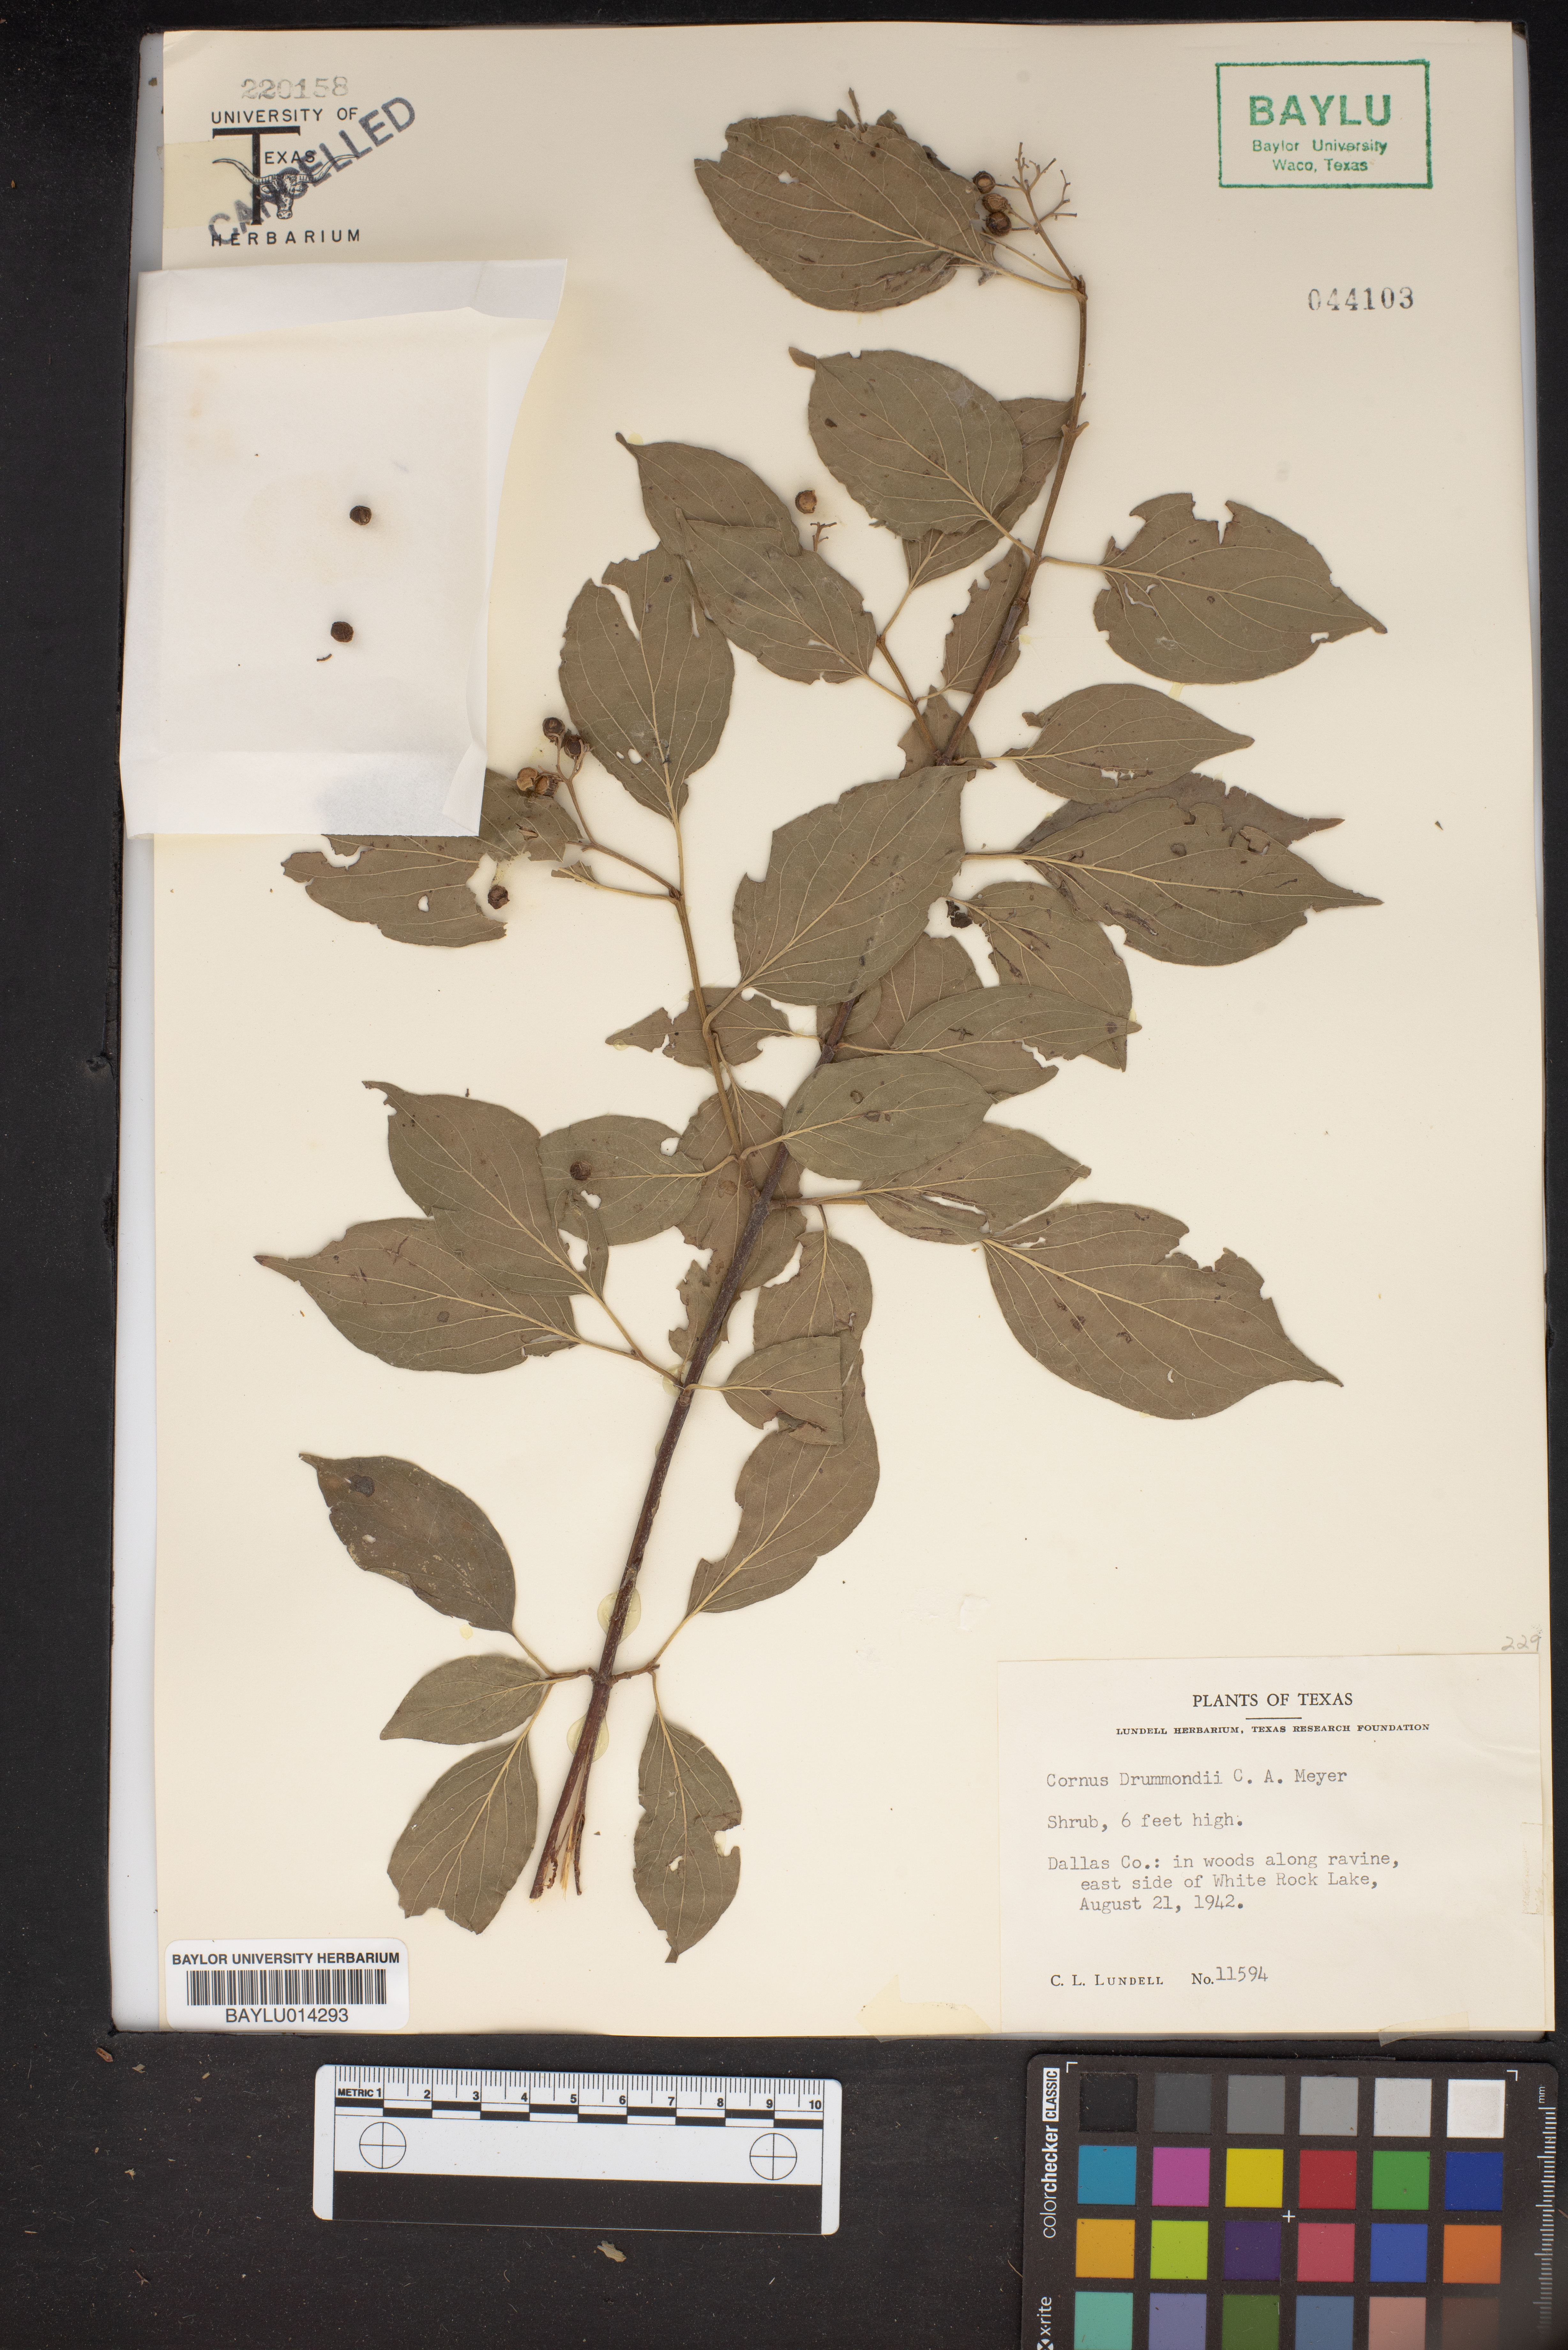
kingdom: Plantae
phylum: Tracheophyta
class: Magnoliopsida
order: Cornales
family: Cornaceae
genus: Cornus
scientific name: Cornus drummondii
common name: Rough-leaf dogwood
